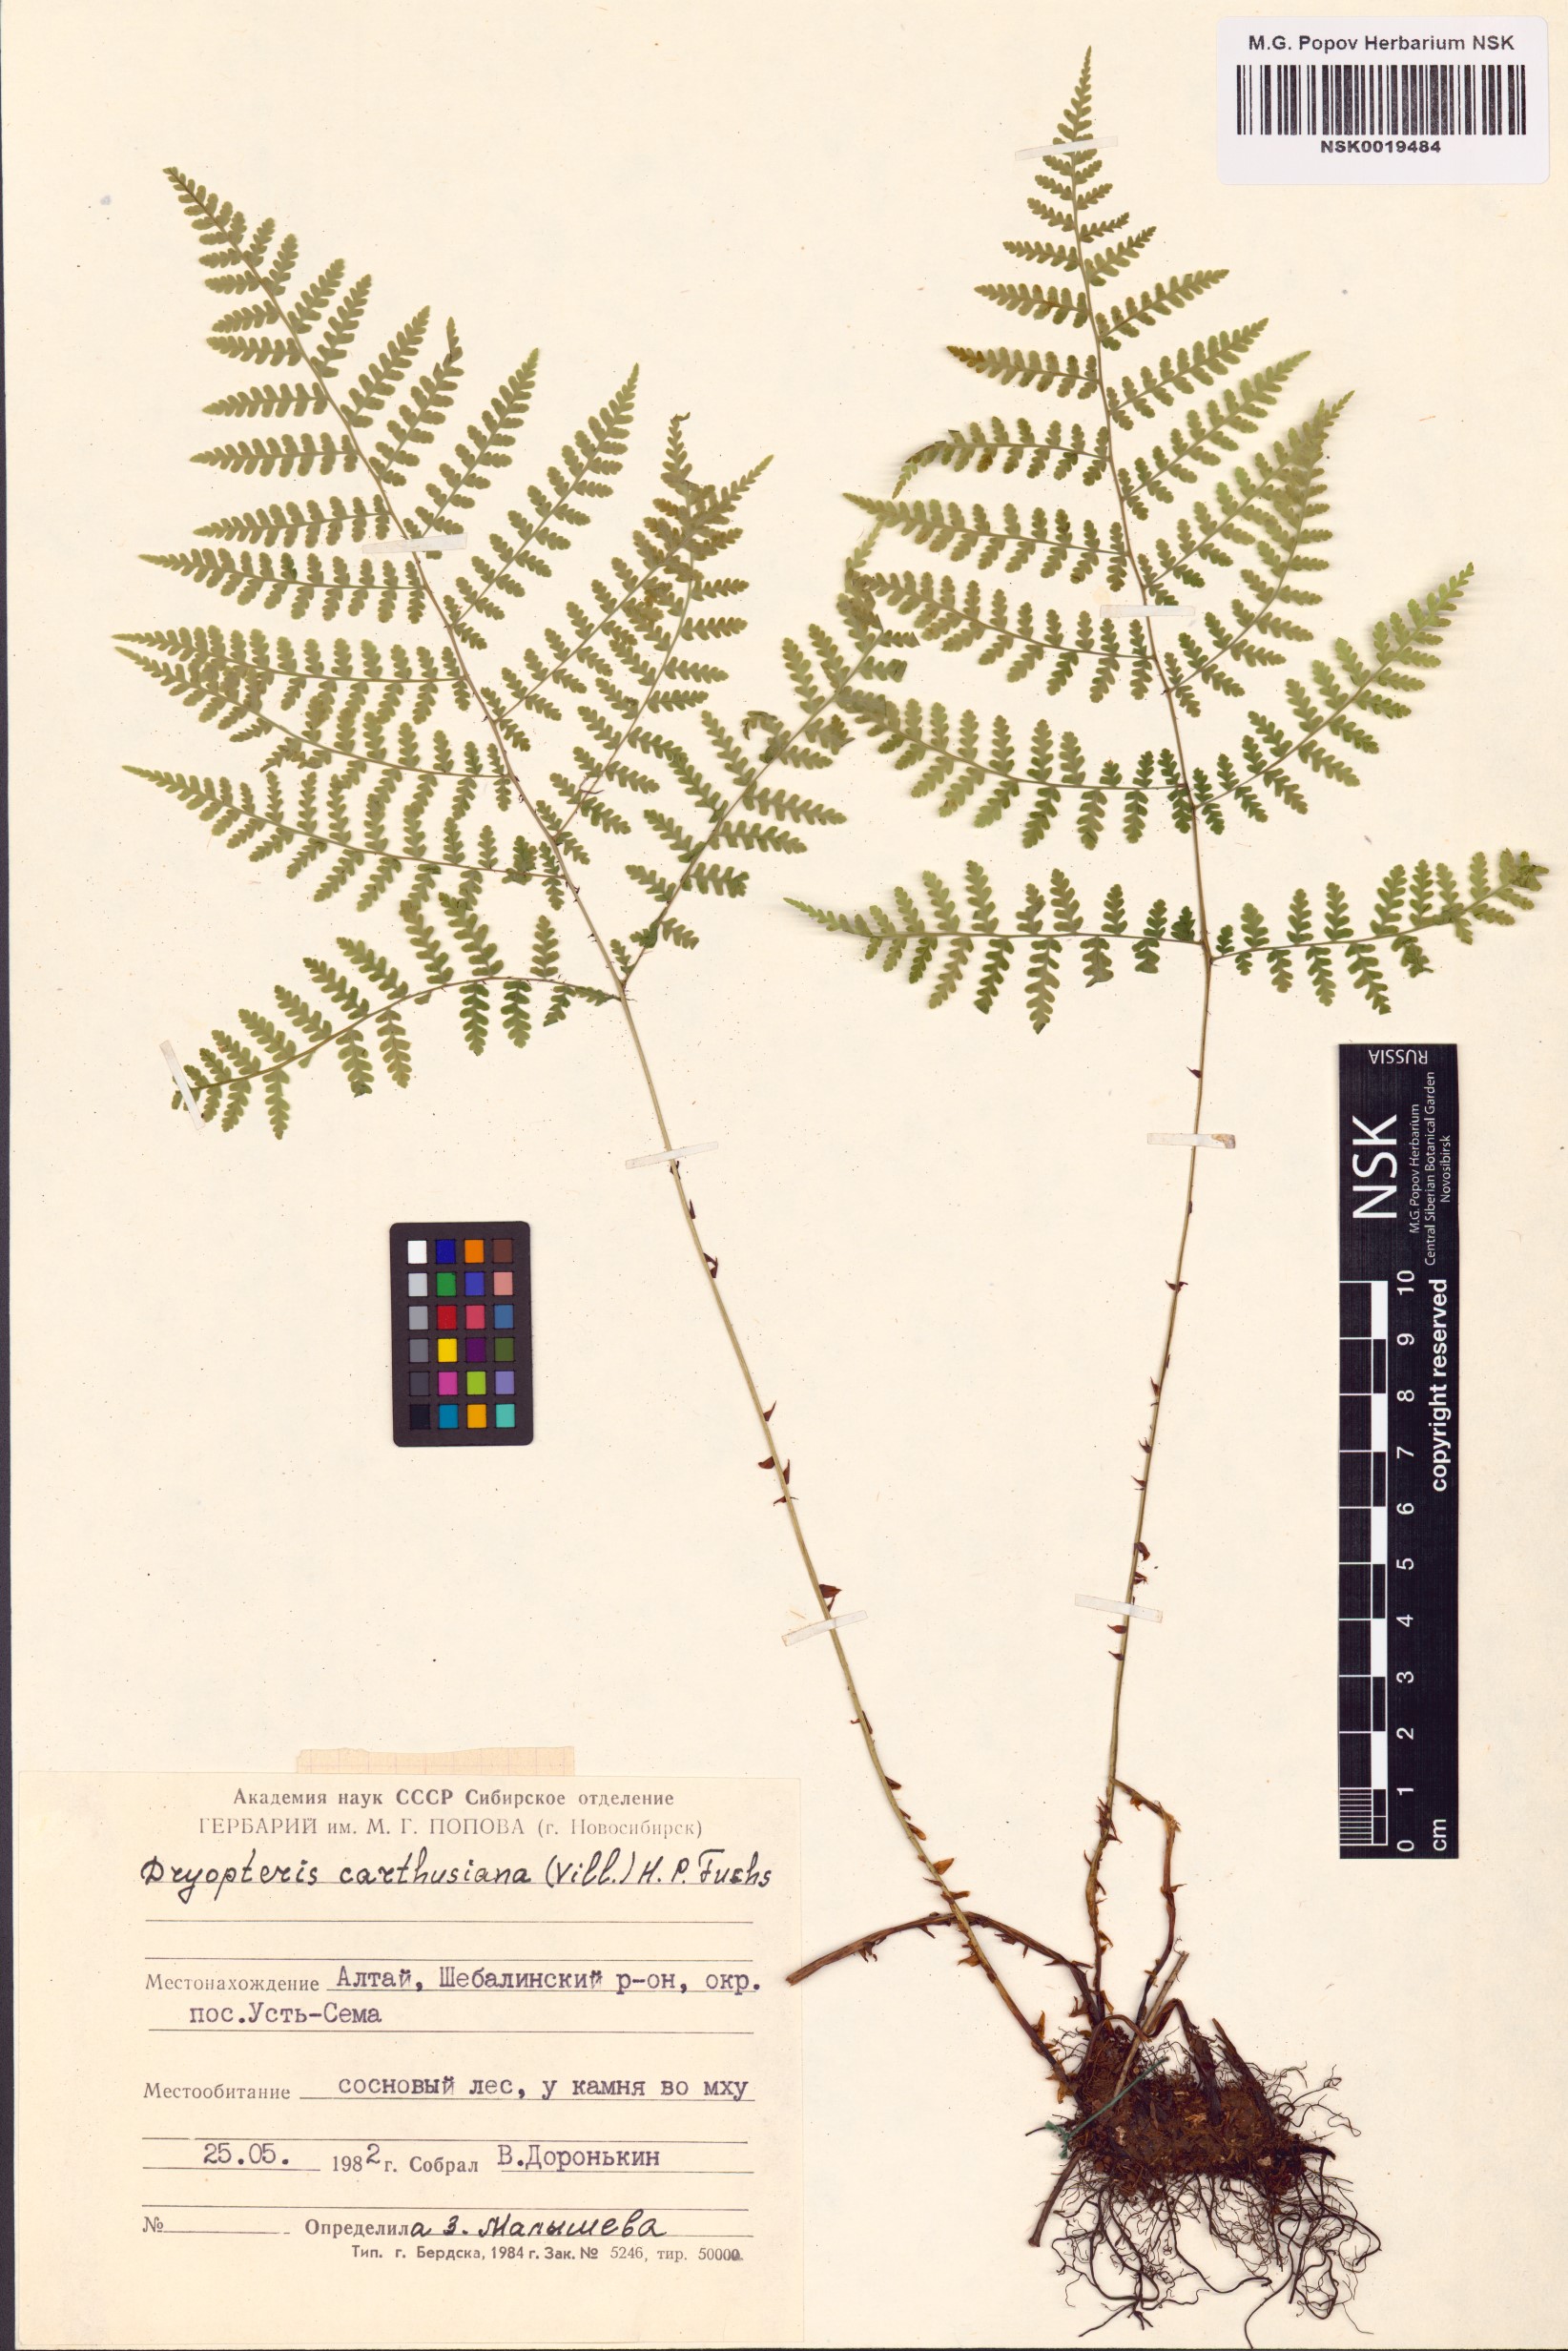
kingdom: Plantae
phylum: Tracheophyta
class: Polypodiopsida
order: Polypodiales
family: Dryopteridaceae
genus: Dryopteris
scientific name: Dryopteris carthusiana
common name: Narrow buckler-fern
